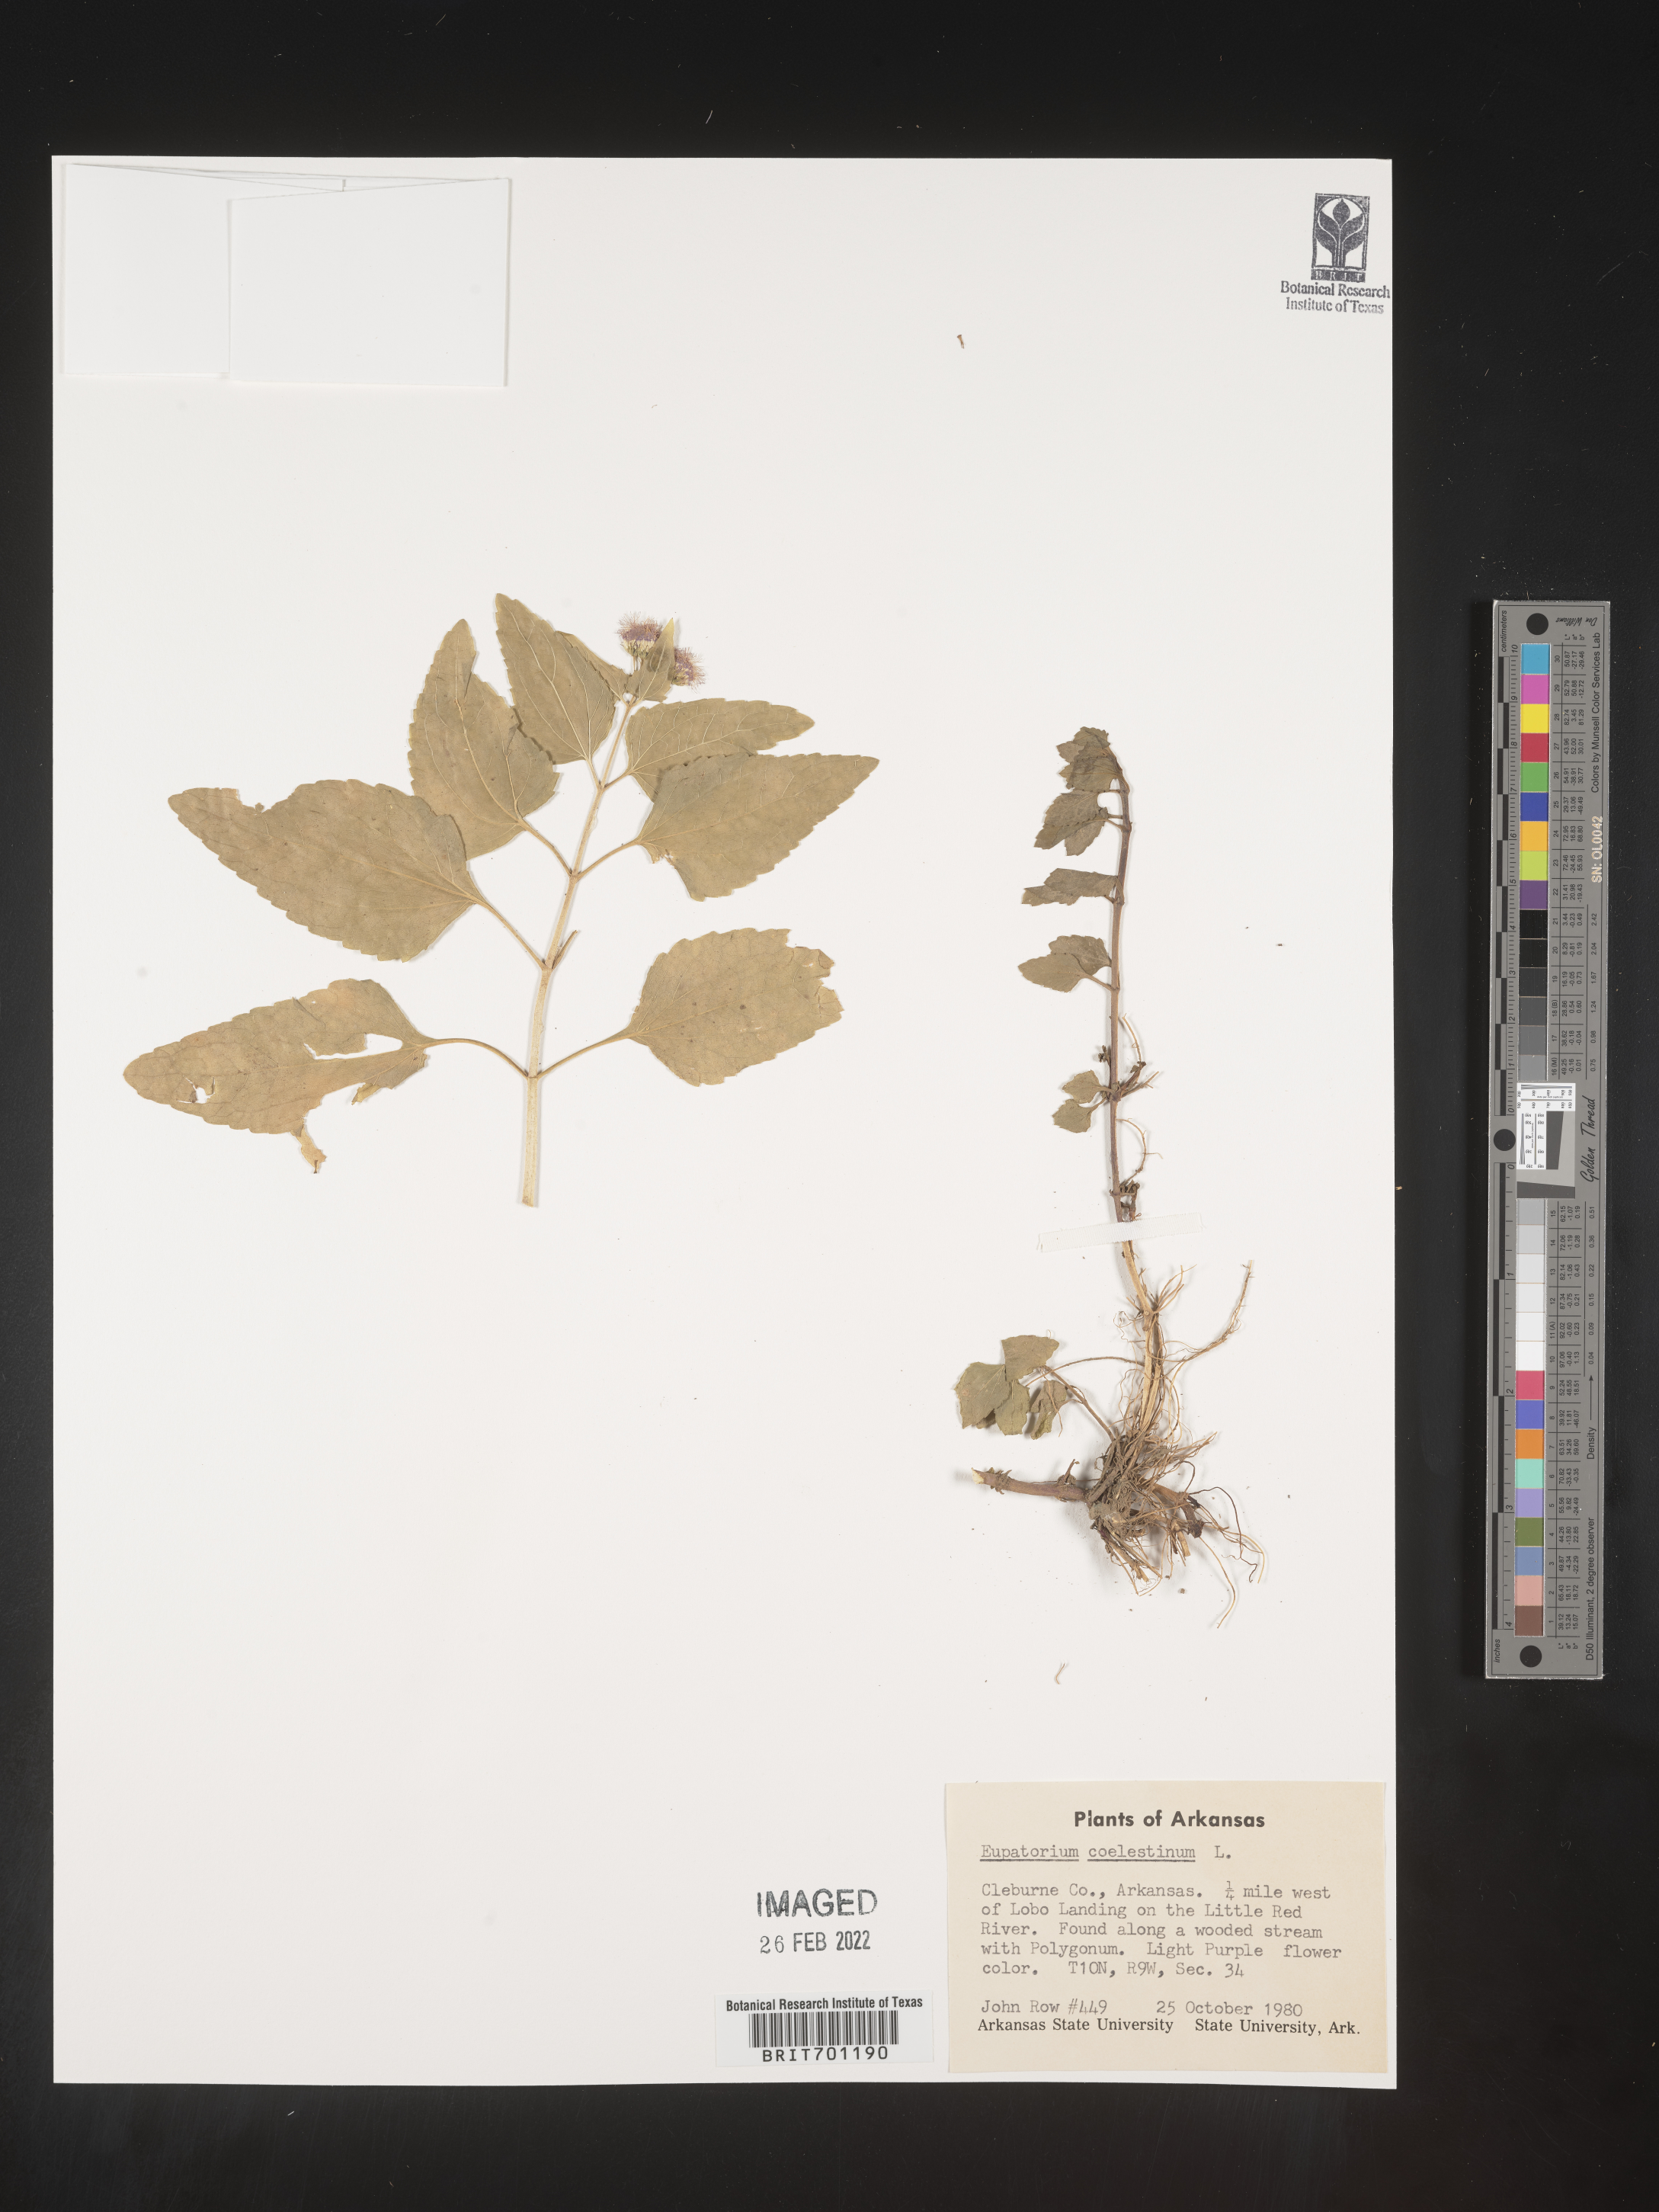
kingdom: Plantae
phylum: Tracheophyta
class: Magnoliopsida
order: Asterales
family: Asteraceae
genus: Conoclinium
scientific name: Conoclinium coelestinum
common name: Blue mistflower
